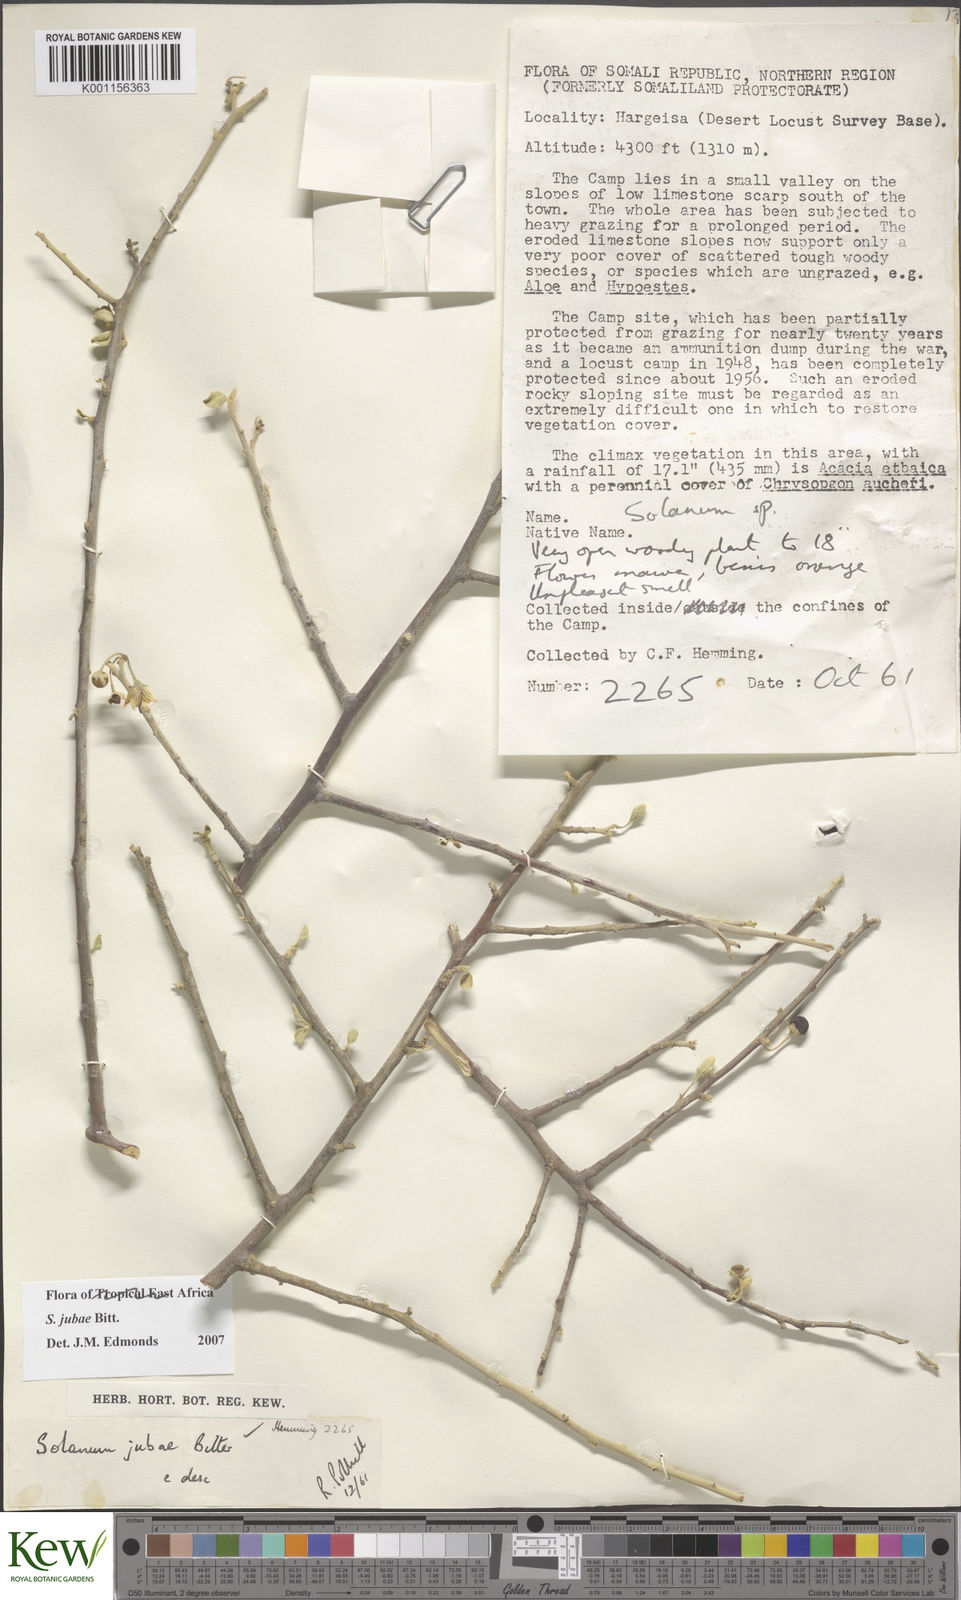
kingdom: Plantae
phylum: Tracheophyta
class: Magnoliopsida
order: Solanales
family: Solanaceae
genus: Solanum
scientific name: Solanum jubae
